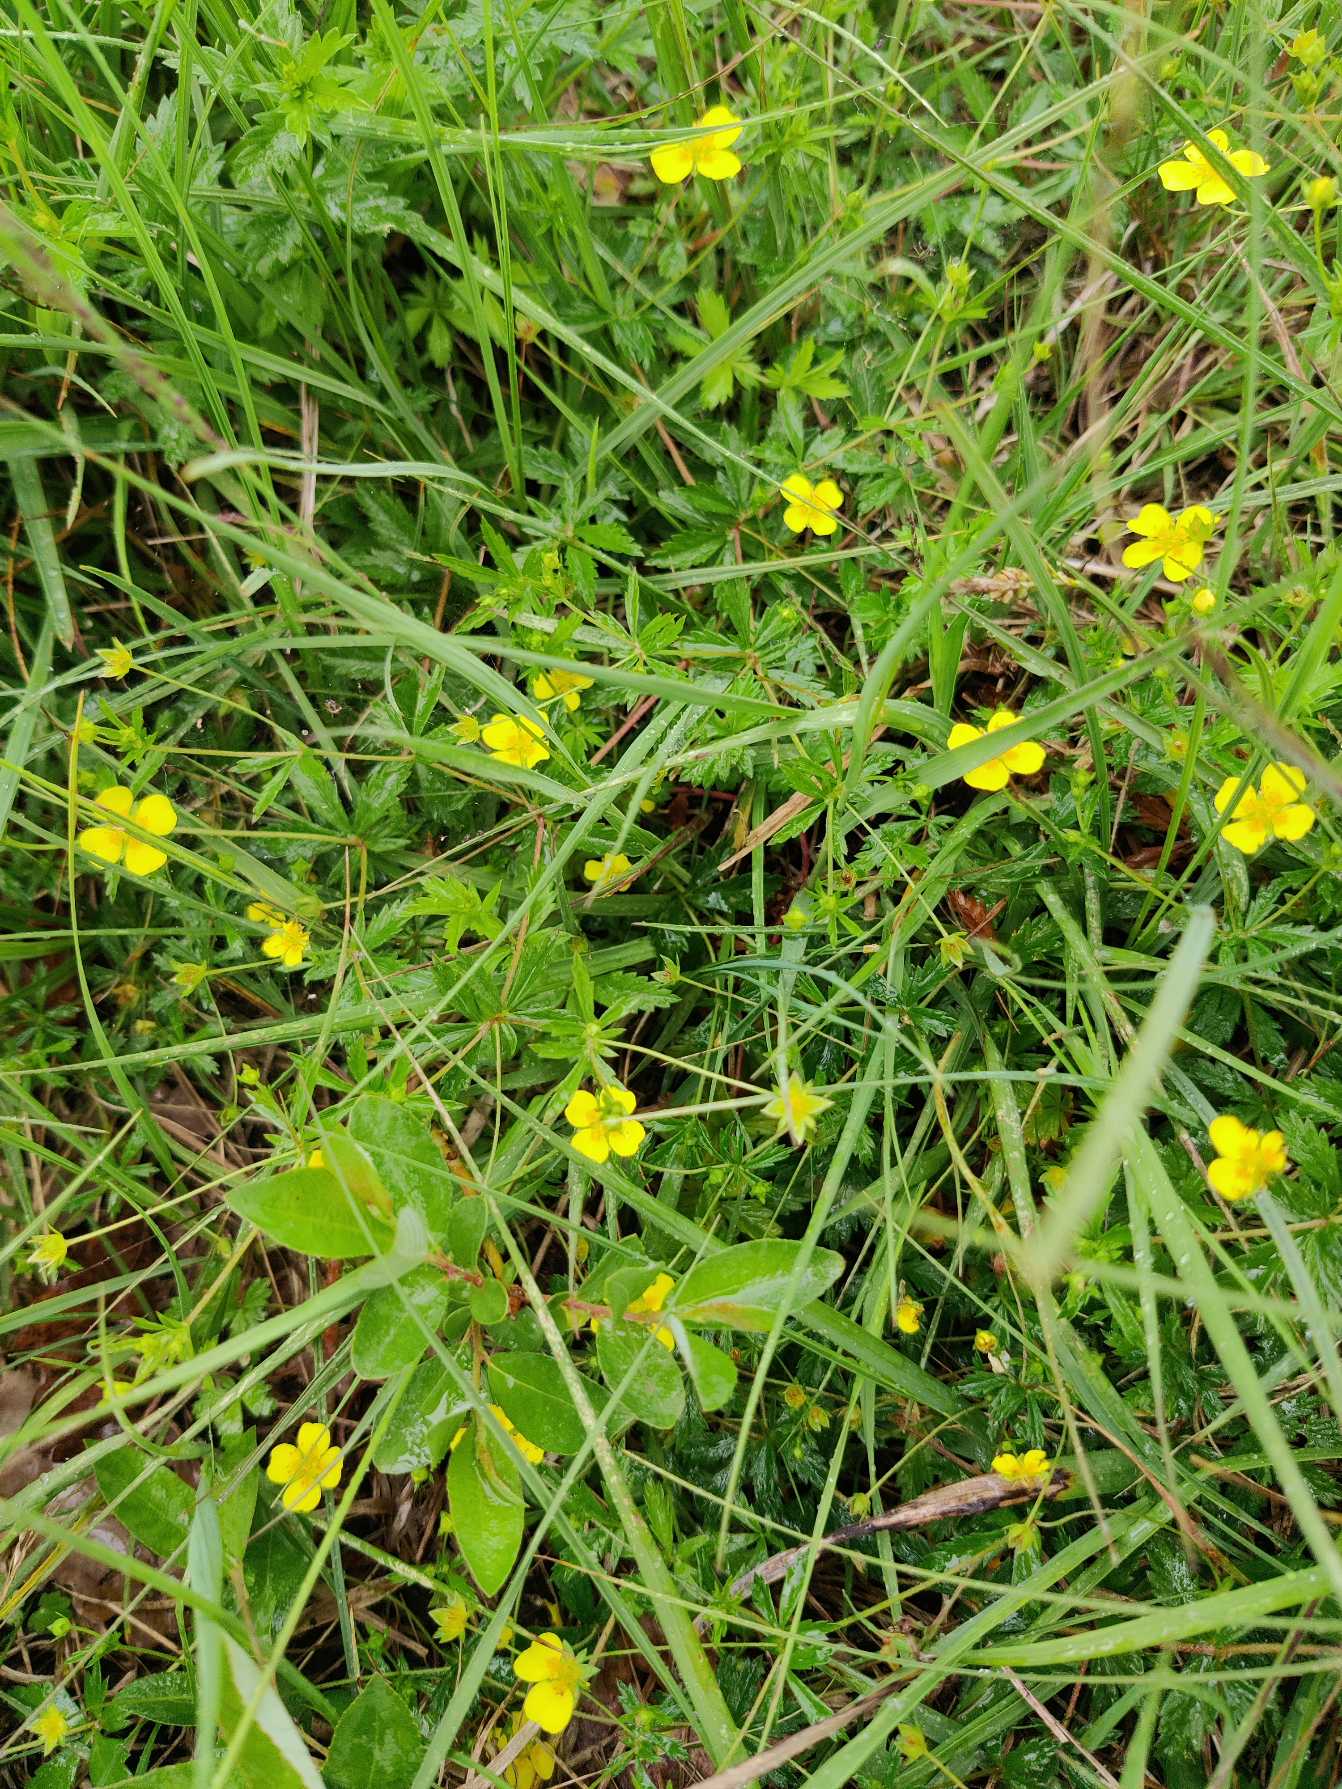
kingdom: Plantae
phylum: Tracheophyta
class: Magnoliopsida
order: Rosales
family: Rosaceae
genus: Potentilla
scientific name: Potentilla erecta
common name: Tormentil
